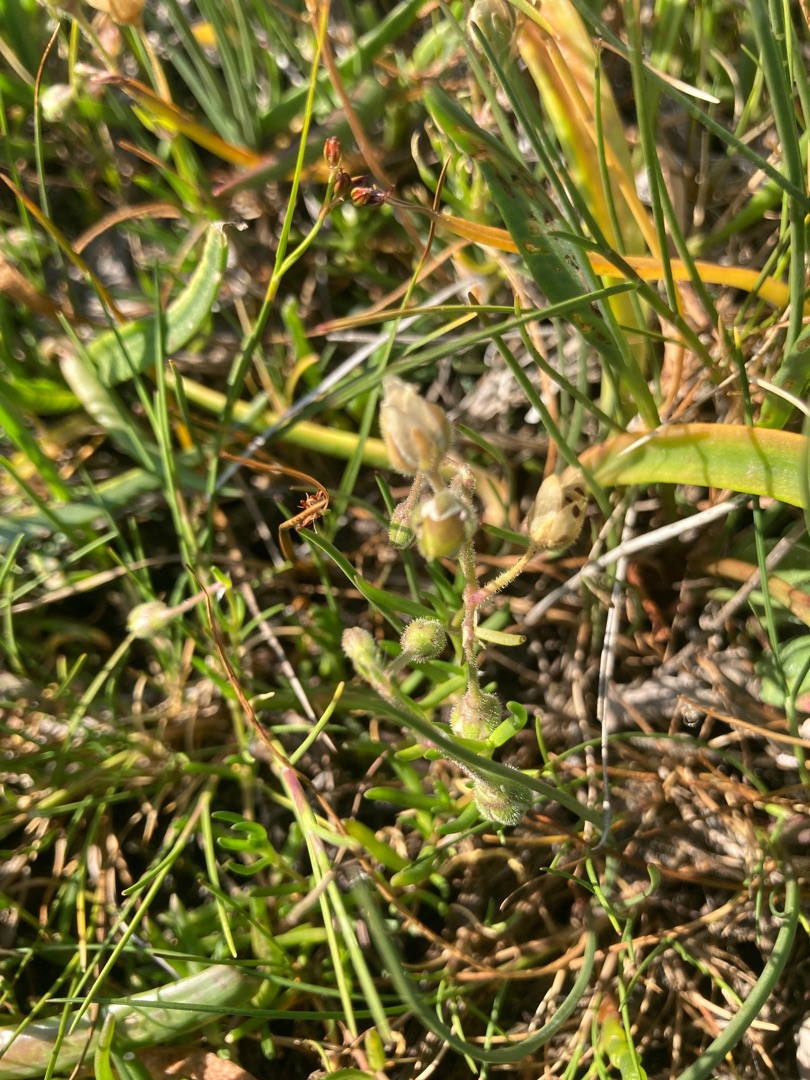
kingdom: Plantae
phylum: Tracheophyta
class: Magnoliopsida
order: Caryophyllales
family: Caryophyllaceae
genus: Spergularia
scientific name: Spergularia media
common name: Vingefrøet hindeknæ
